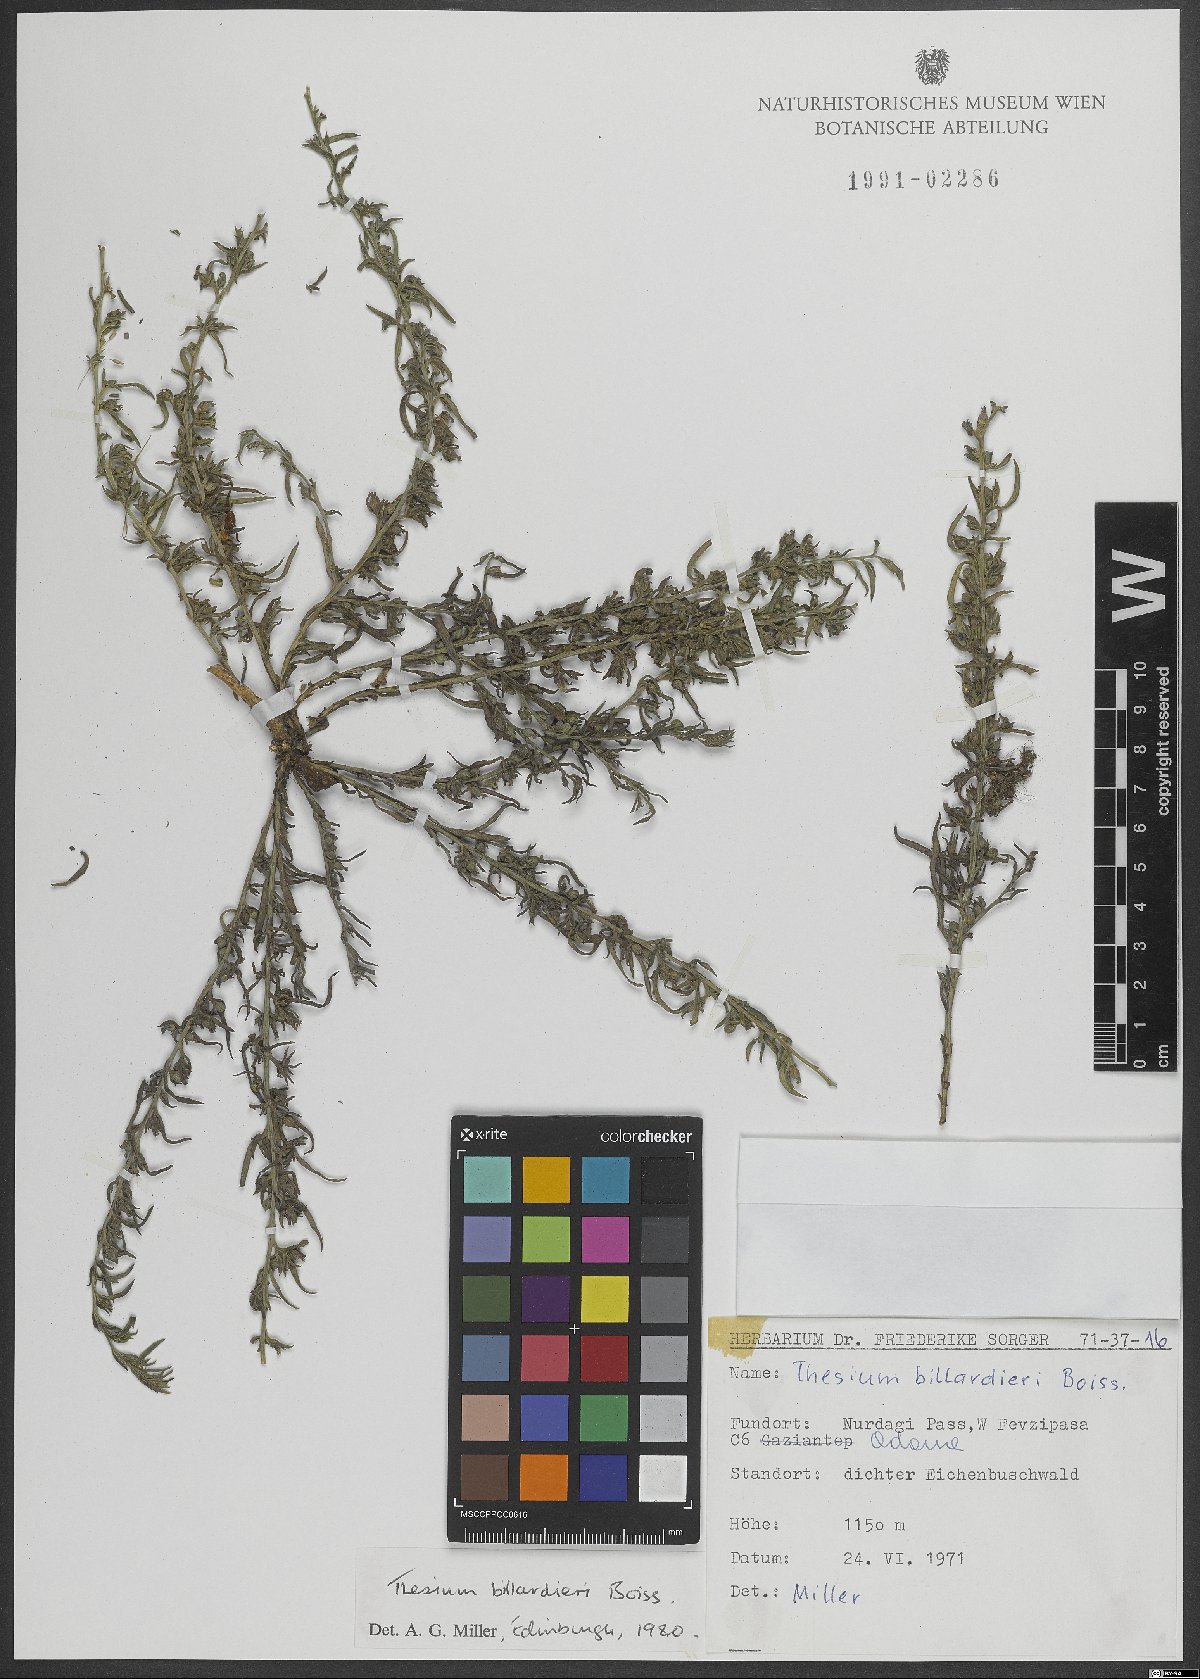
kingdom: Plantae
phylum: Tracheophyta
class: Magnoliopsida
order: Santalales
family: Thesiaceae
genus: Thesium
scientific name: Thesium billardierei
